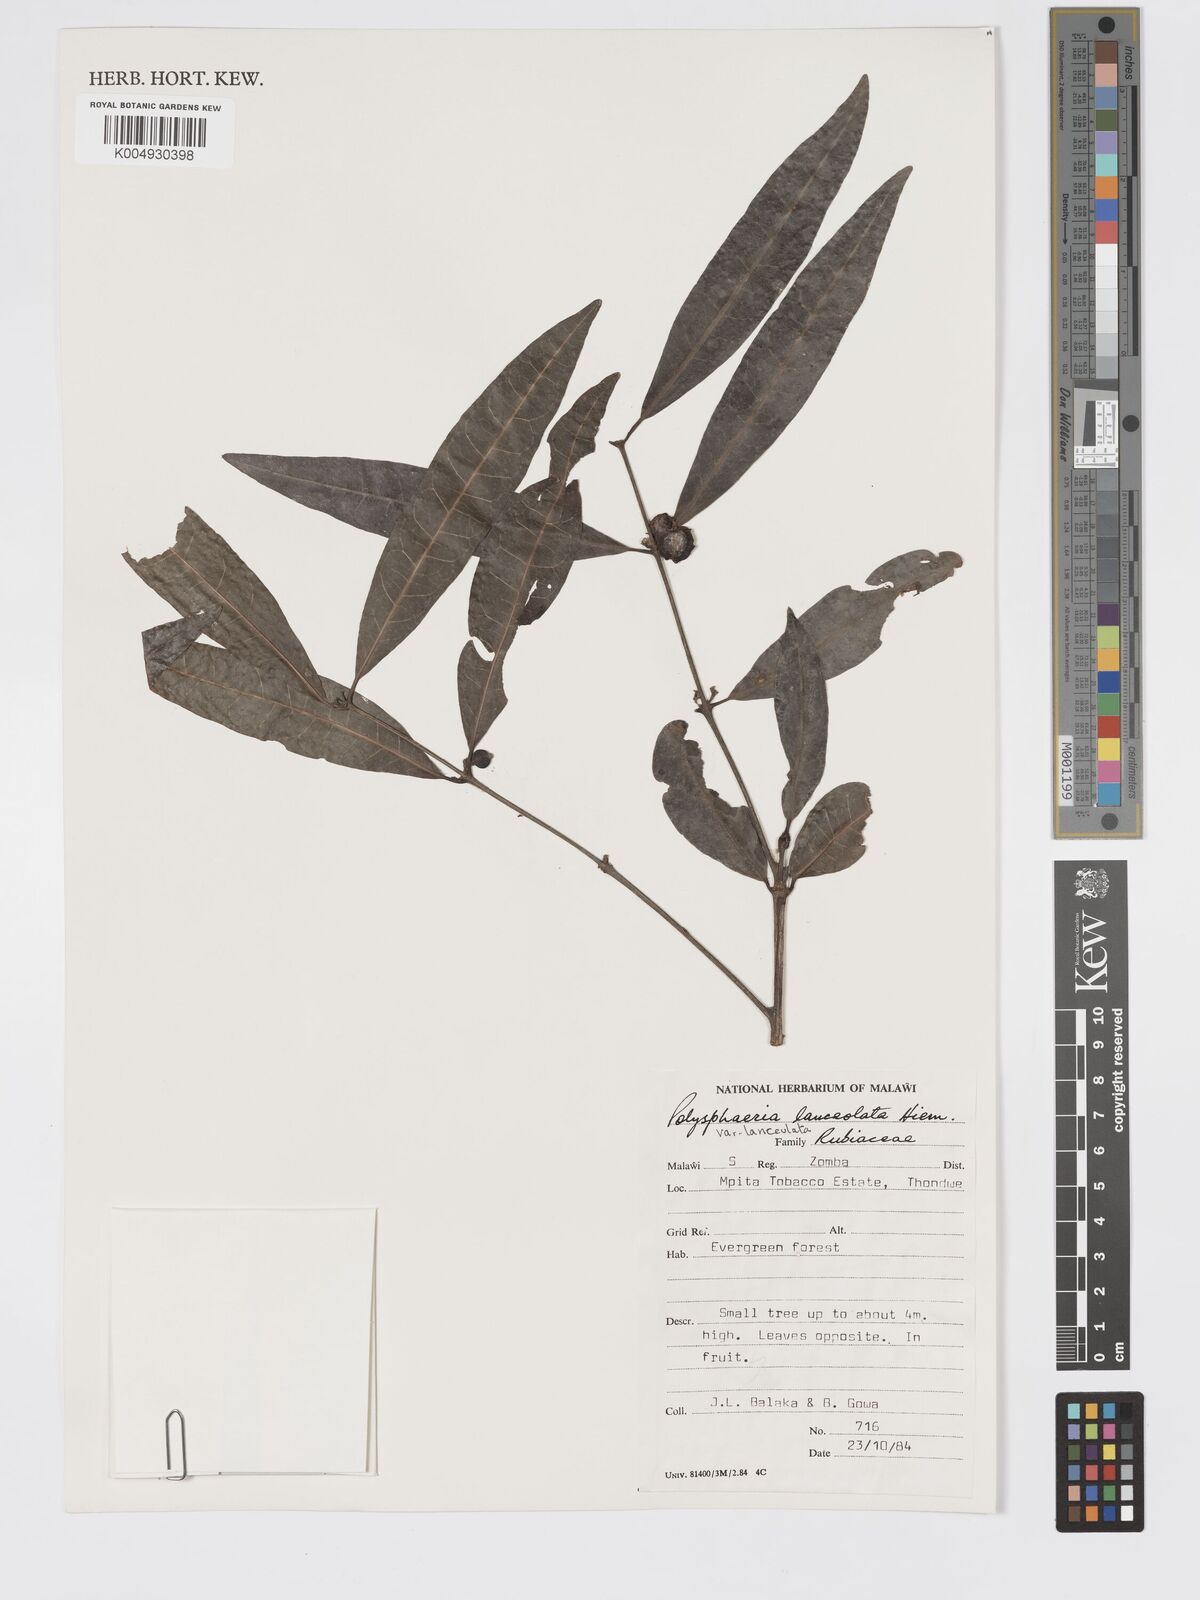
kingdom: Plantae
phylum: Tracheophyta
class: Magnoliopsida
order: Gentianales
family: Rubiaceae
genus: Polysphaeria
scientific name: Polysphaeria lanceolata
